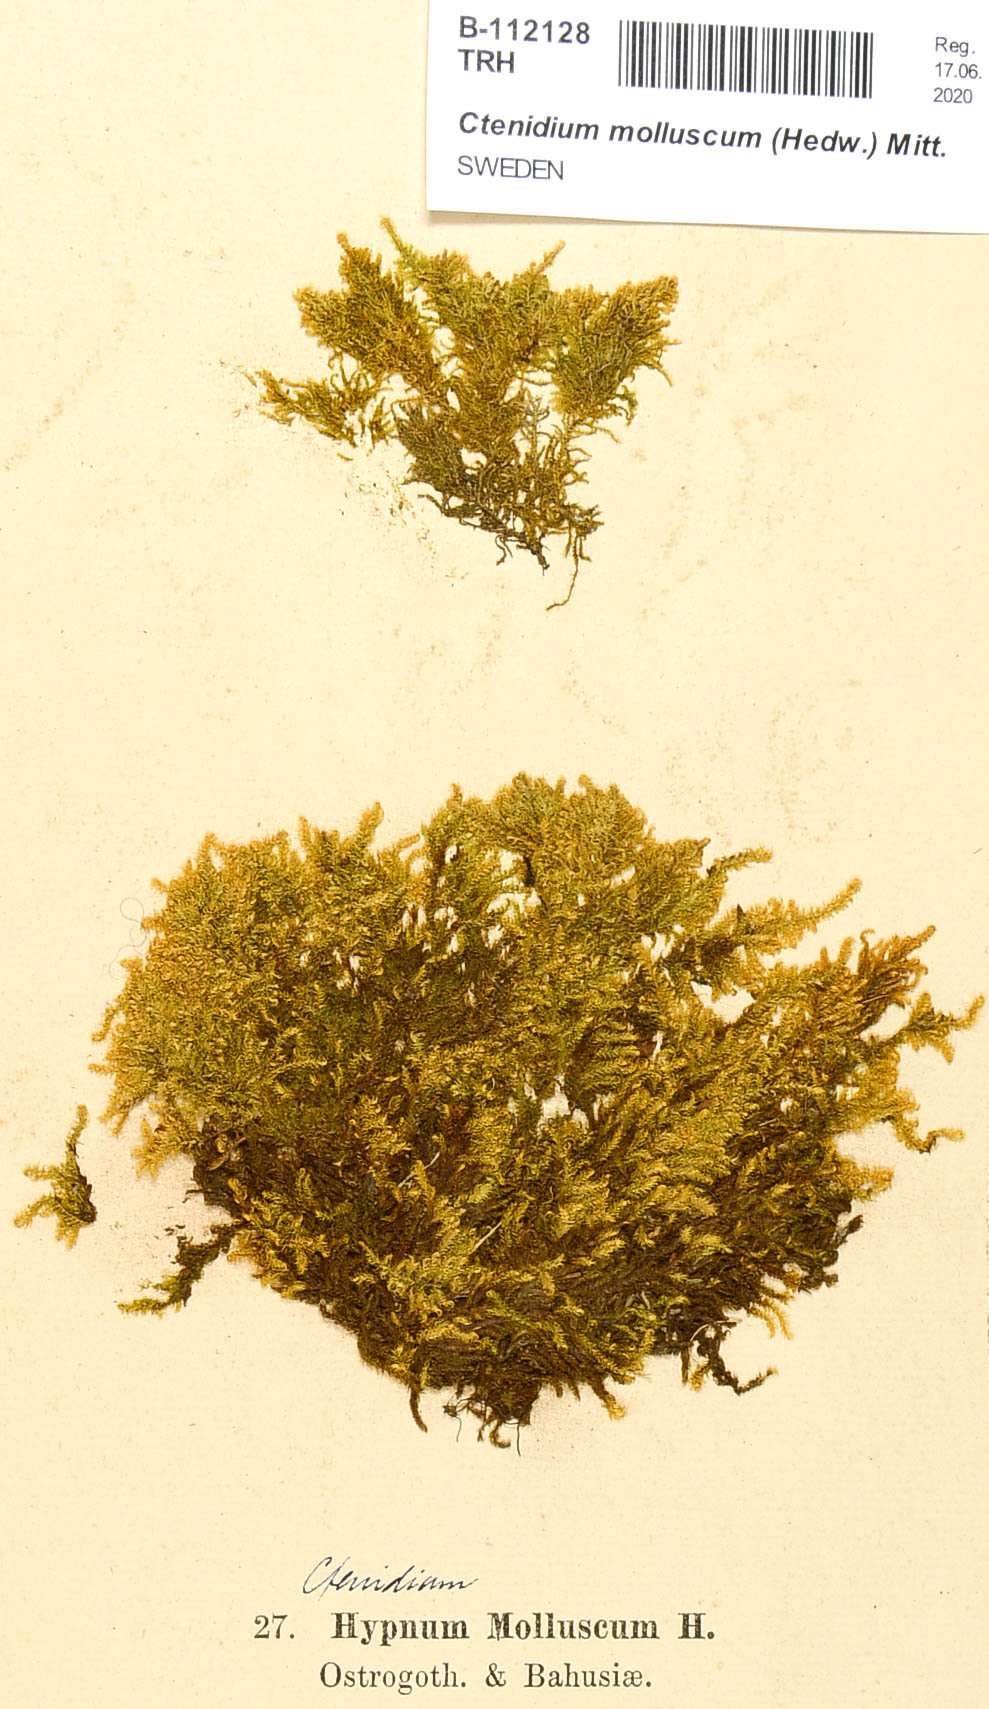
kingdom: Plantae
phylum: Bryophyta
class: Bryopsida
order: Hypnales
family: Myuriaceae
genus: Ctenidium
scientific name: Ctenidium molluscum
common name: Chalk comb-moss
